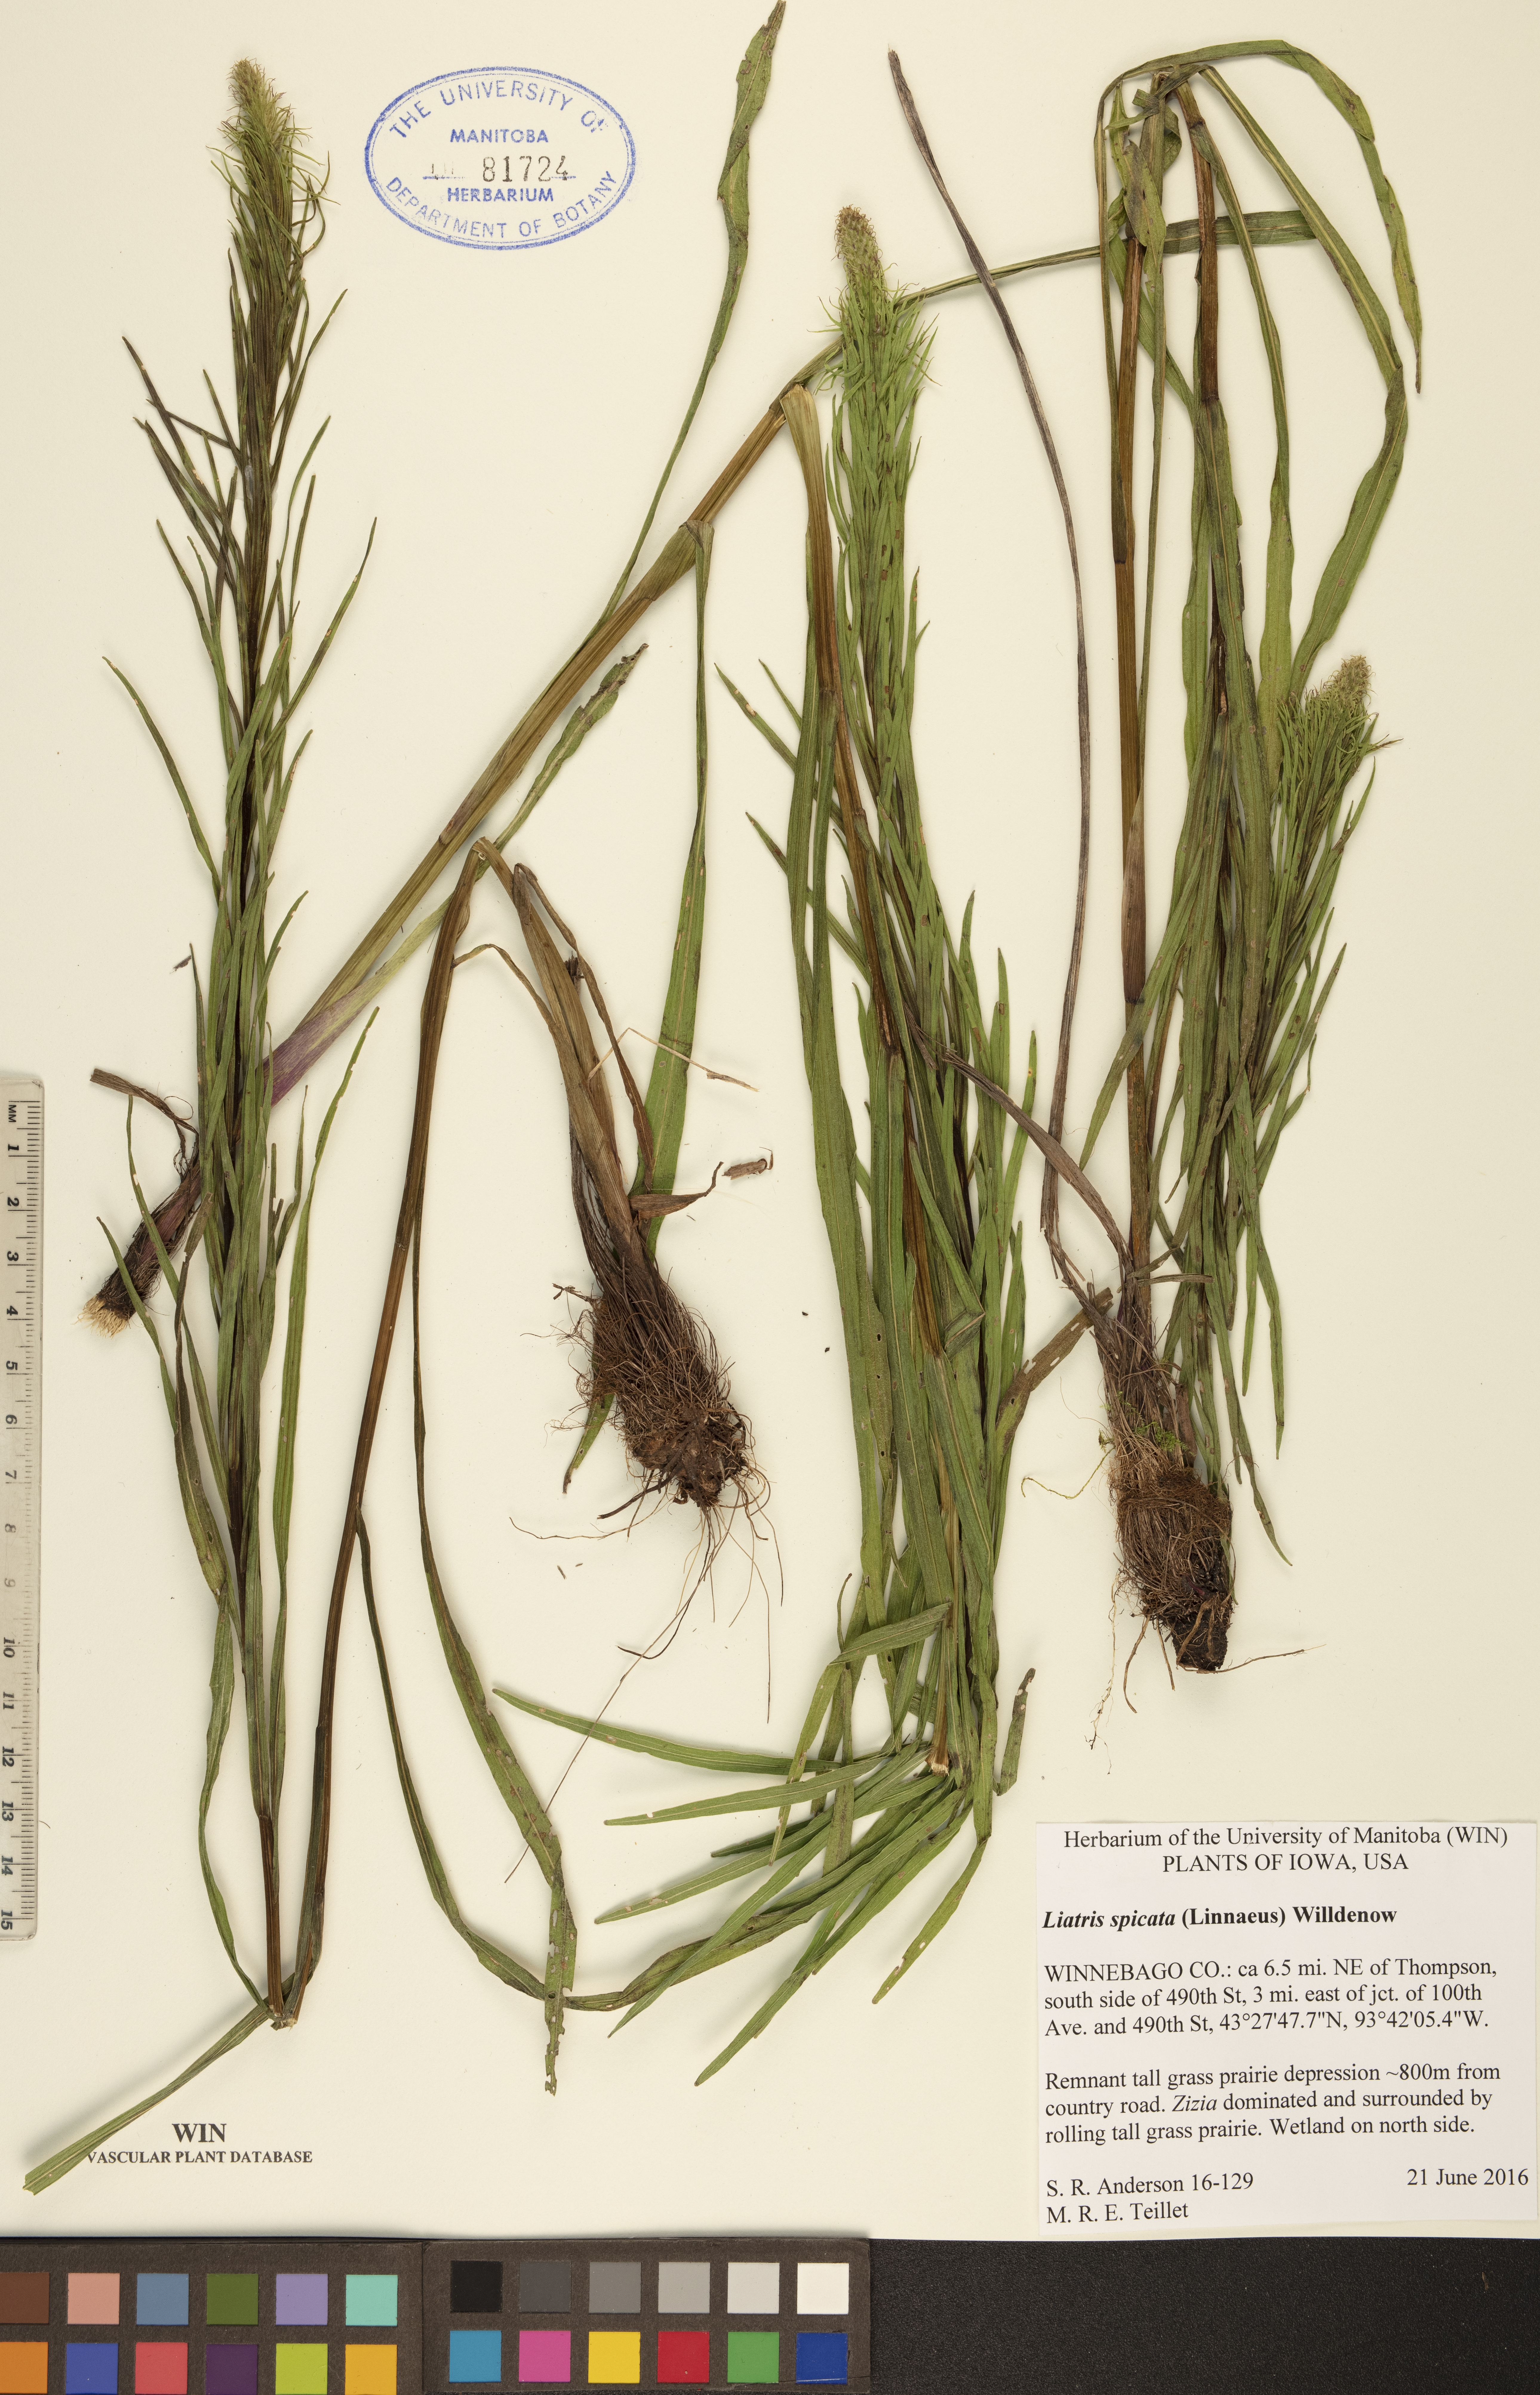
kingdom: Plantae
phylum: Tracheophyta
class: Magnoliopsida
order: Asterales
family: Asteraceae
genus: Liatris
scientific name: Liatris spicata
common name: Florist gayfeather
